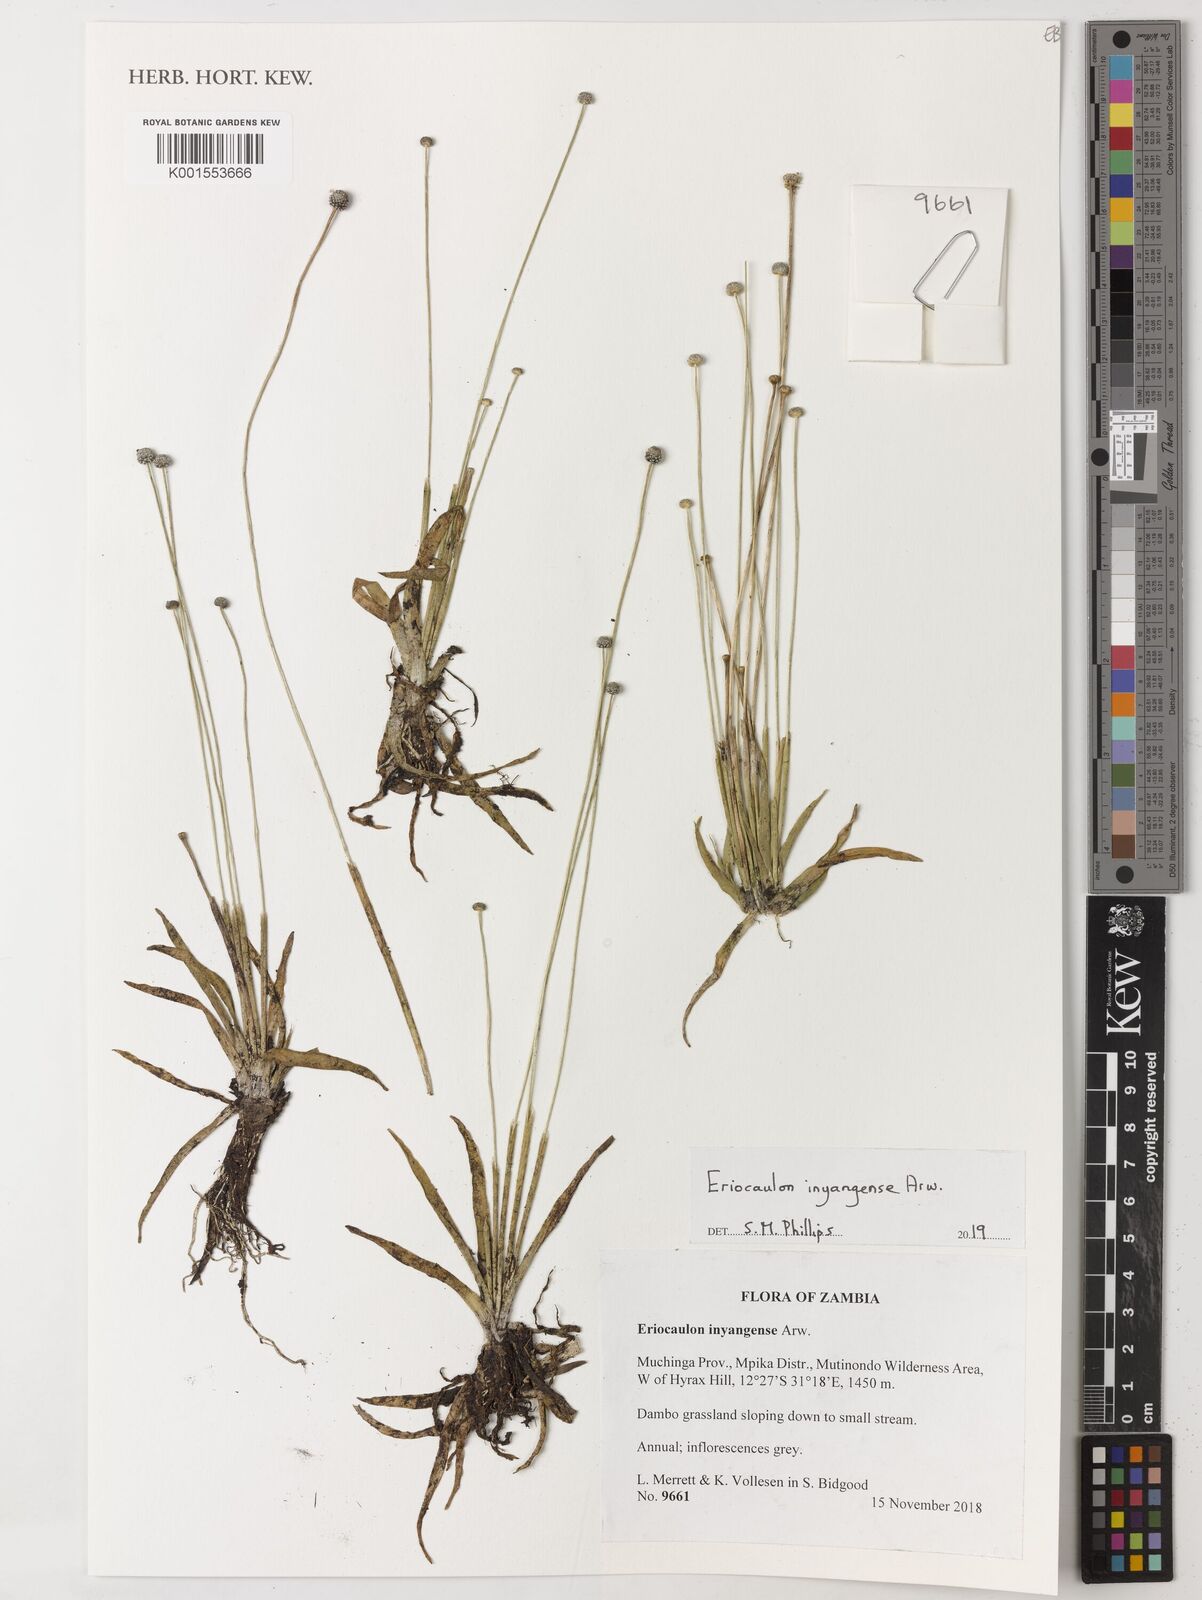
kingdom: Plantae
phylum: Tracheophyta
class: Liliopsida
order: Poales
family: Eriocaulaceae
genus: Eriocaulon
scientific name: Eriocaulon inyangense
